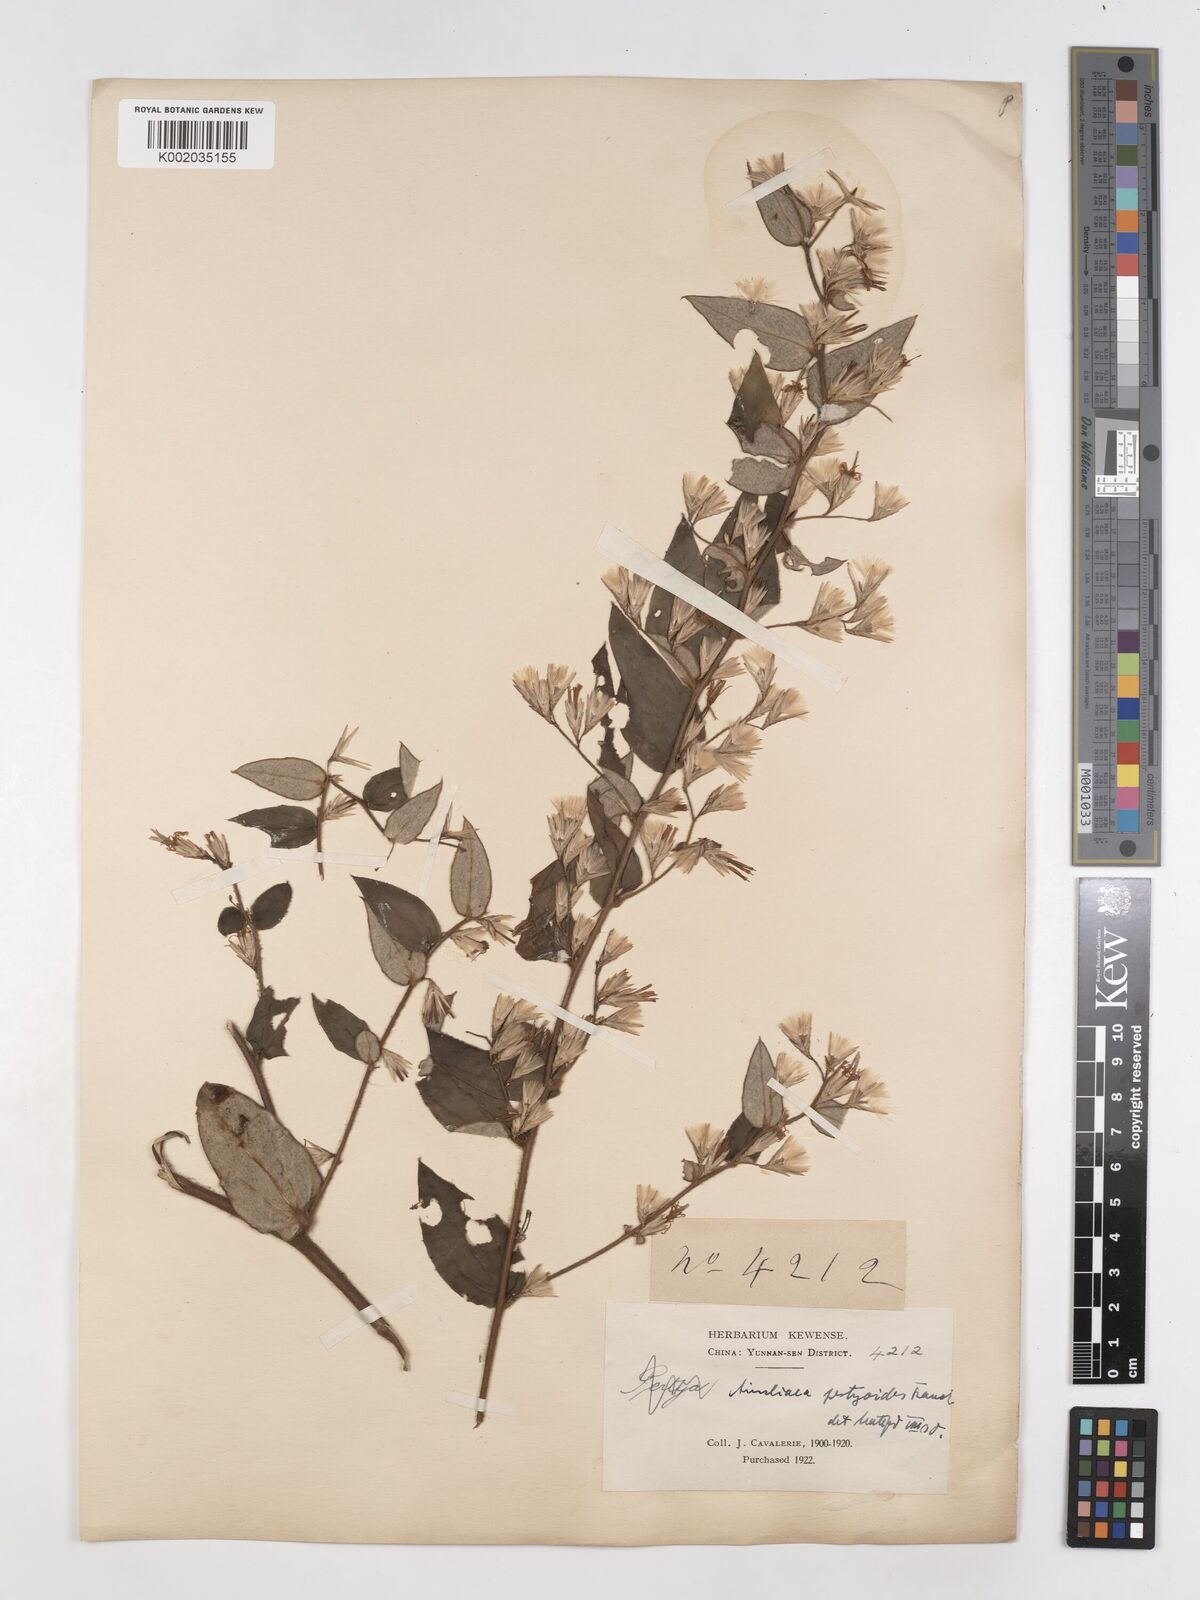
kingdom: Plantae
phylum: Tracheophyta
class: Magnoliopsida
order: Asterales
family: Asteraceae
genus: Ainsliaea
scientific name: Ainsliaea pertyoides
